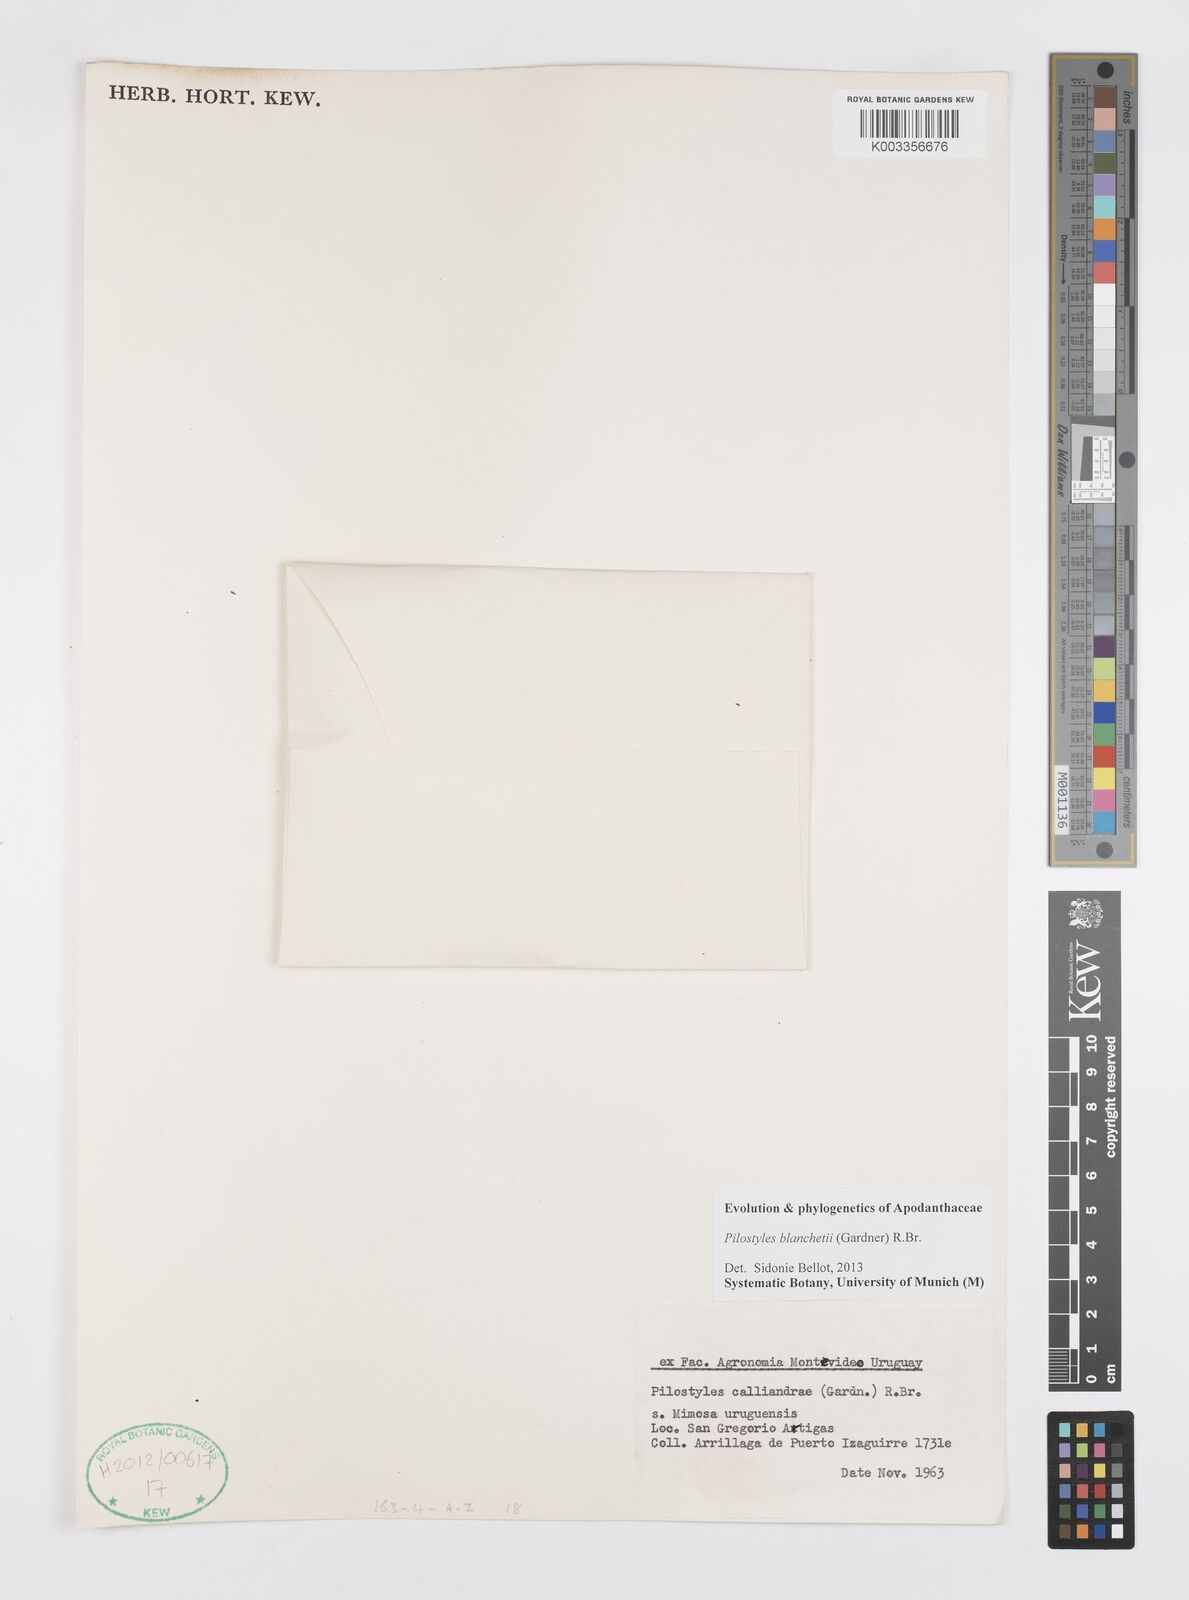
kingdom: Plantae
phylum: Tracheophyta
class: Magnoliopsida
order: Cucurbitales
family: Apodanthaceae
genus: Pilostyles
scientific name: Pilostyles blanchetii
